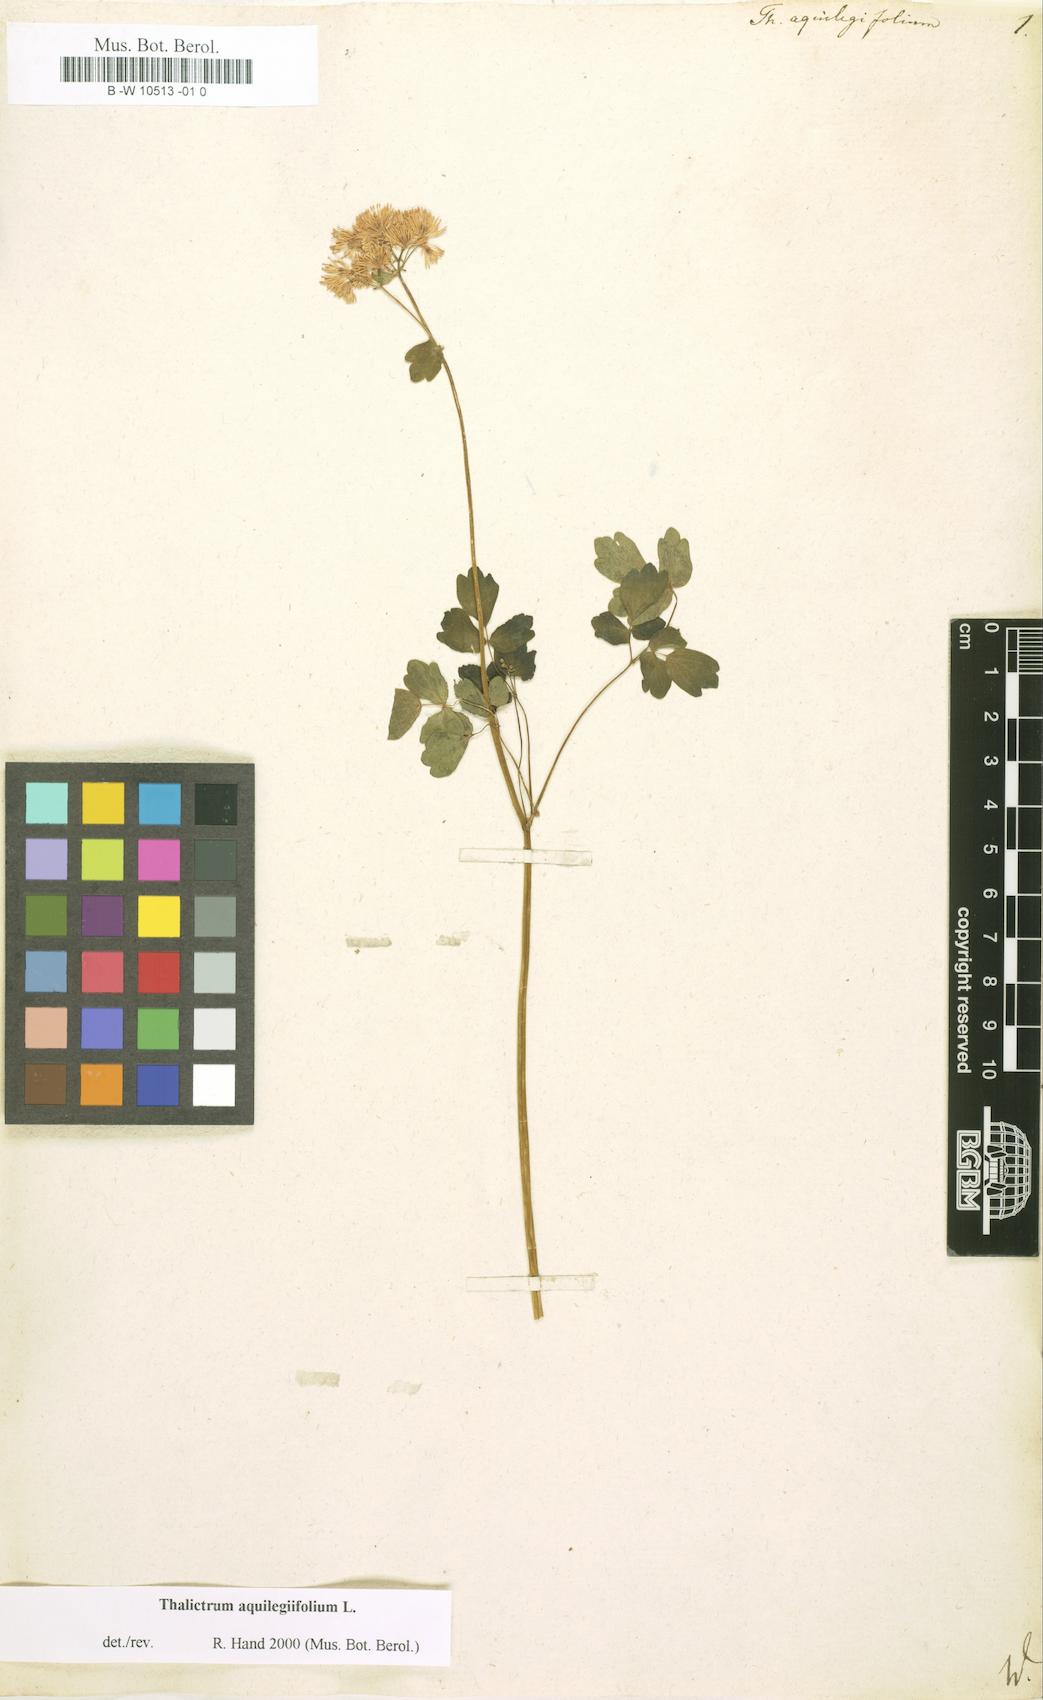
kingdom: Plantae
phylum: Tracheophyta
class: Magnoliopsida
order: Ranunculales
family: Ranunculaceae
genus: Thalictrum
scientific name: Thalictrum aquilegiifolium
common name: French meadow-rue
